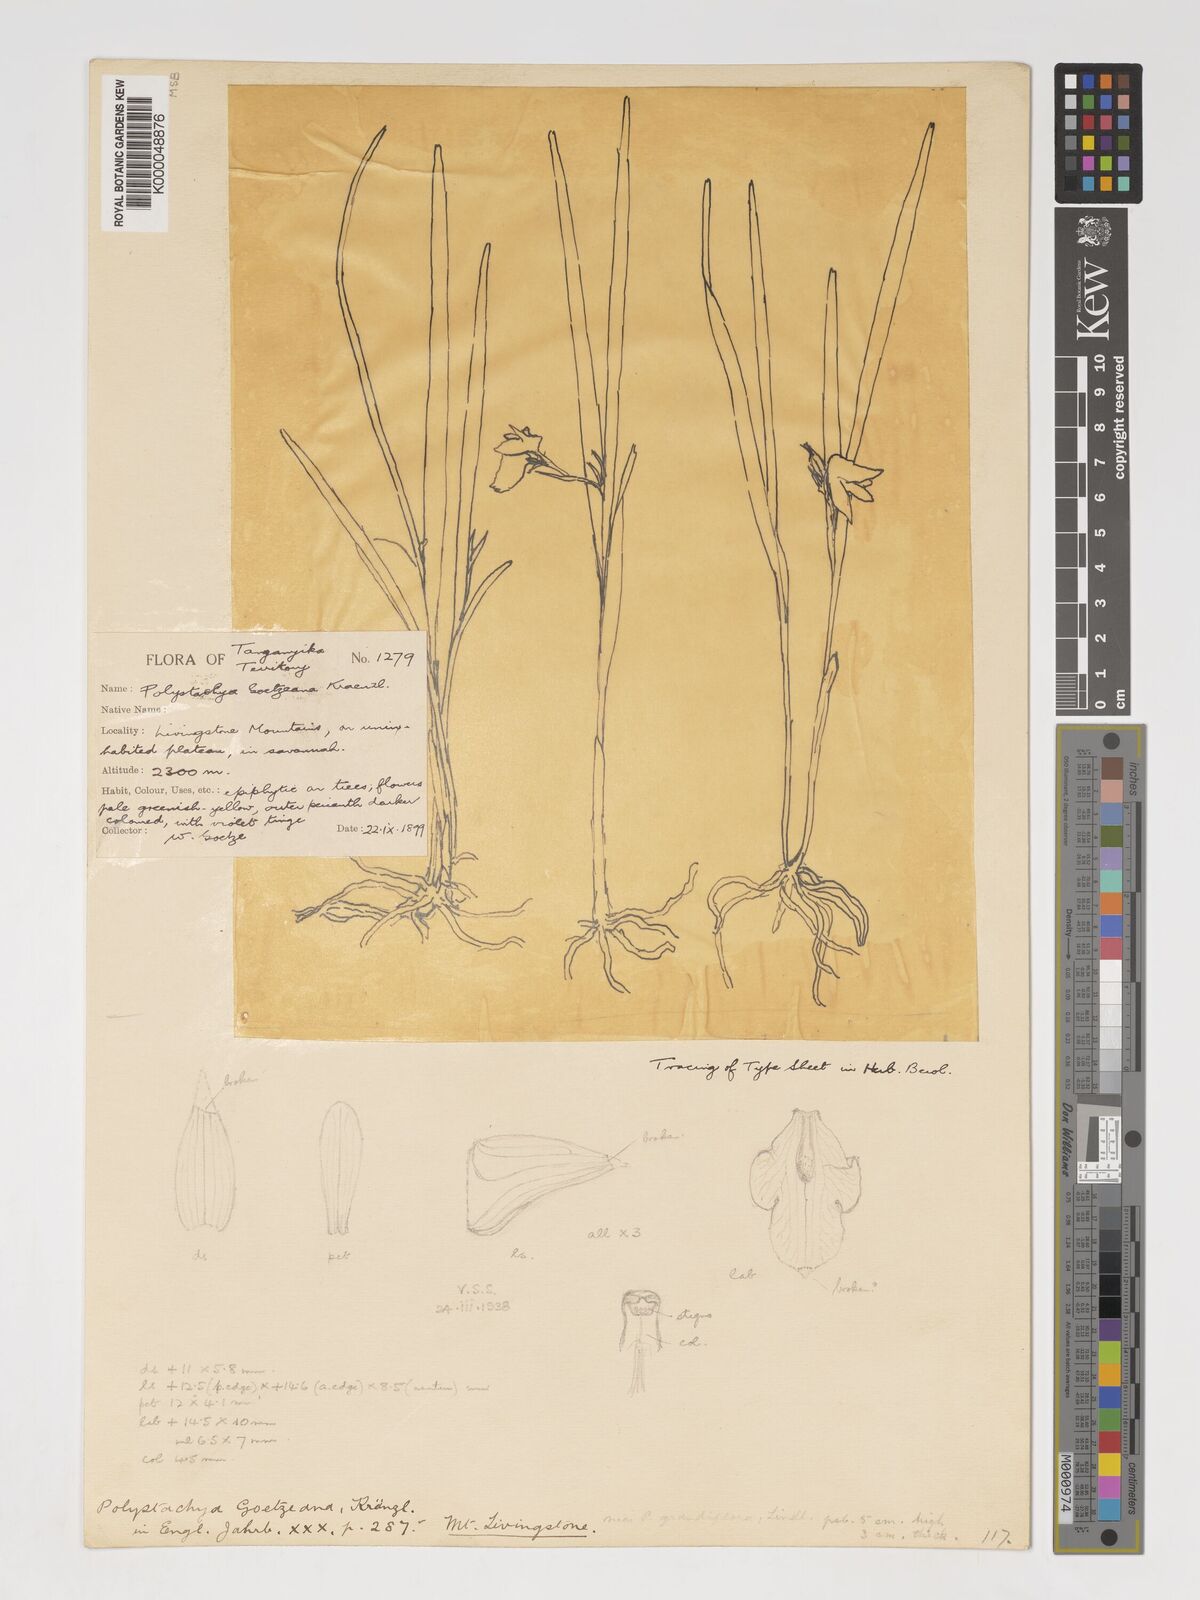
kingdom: Plantae
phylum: Tracheophyta
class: Liliopsida
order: Asparagales
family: Orchidaceae
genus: Polystachya
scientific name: Polystachya goetzeana
